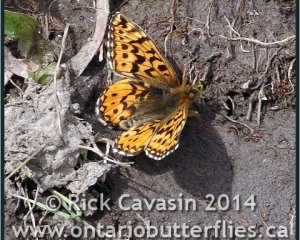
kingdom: Animalia
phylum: Arthropoda
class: Insecta
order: Lepidoptera
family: Nymphalidae
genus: Boloria
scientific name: Boloria freija
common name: Freija Fritillary
